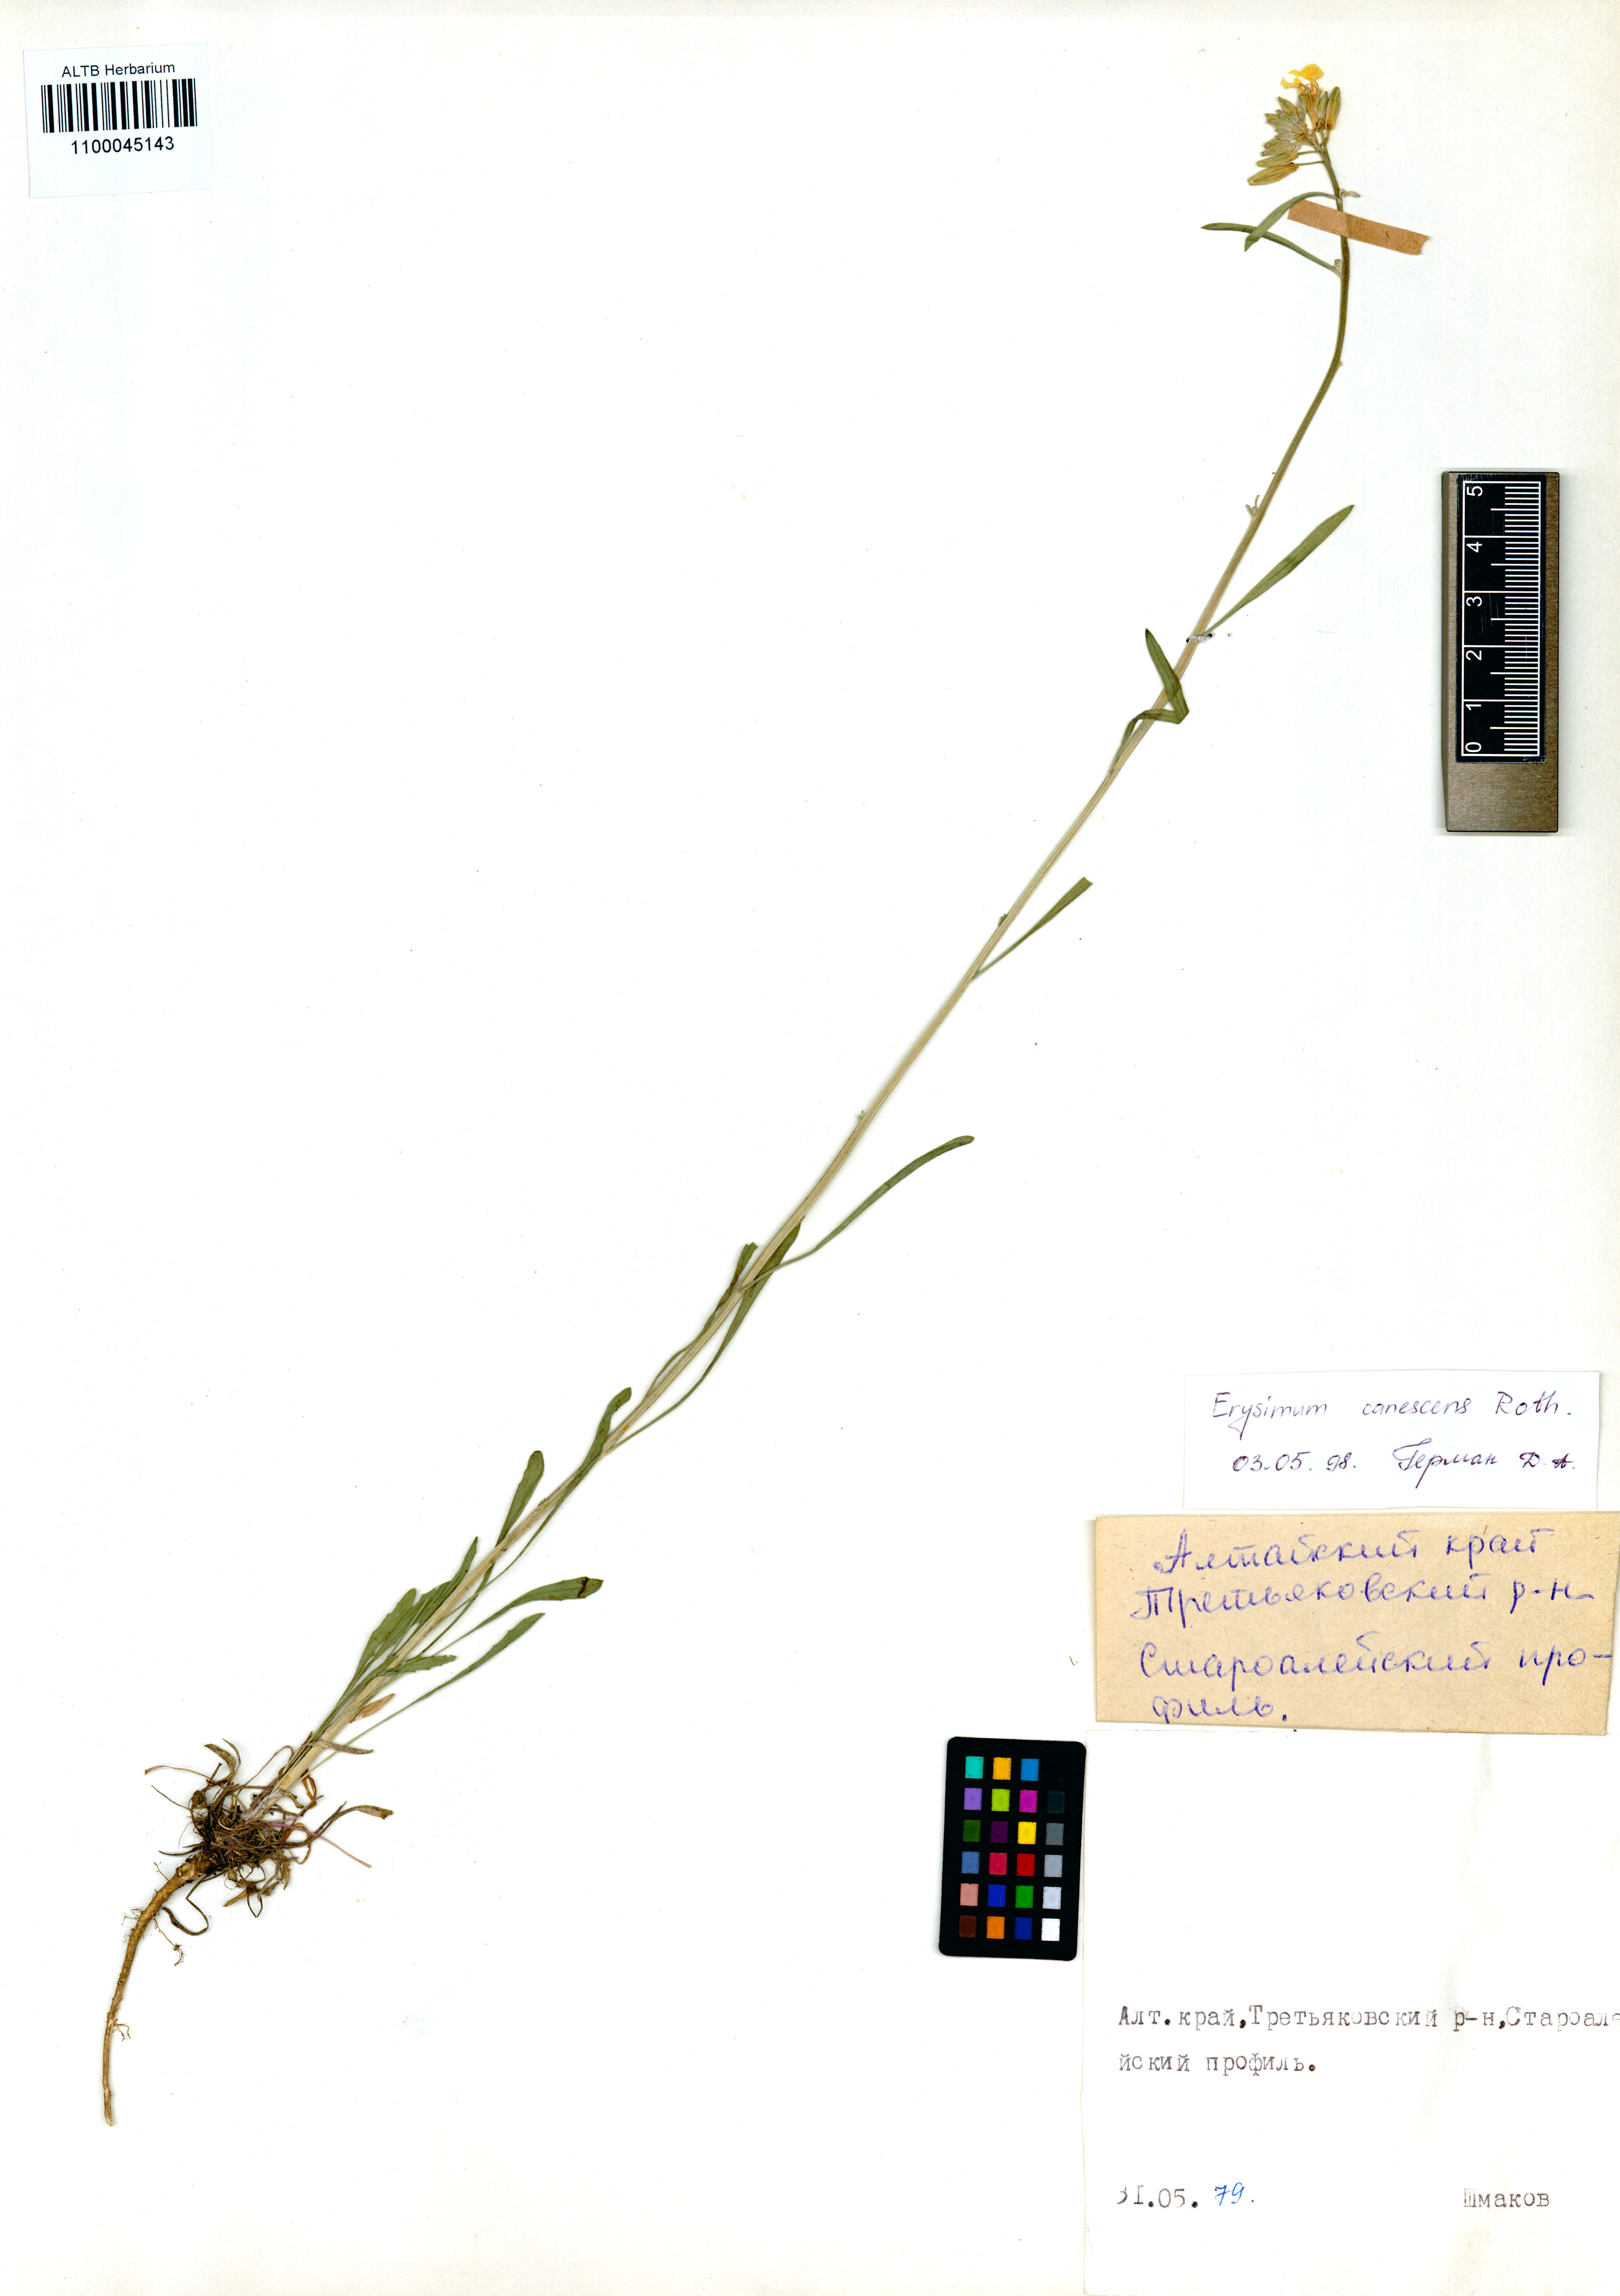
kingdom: Plantae
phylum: Tracheophyta
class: Magnoliopsida
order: Brassicales
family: Brassicaceae
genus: Erysimum
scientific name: Erysimum canescens
